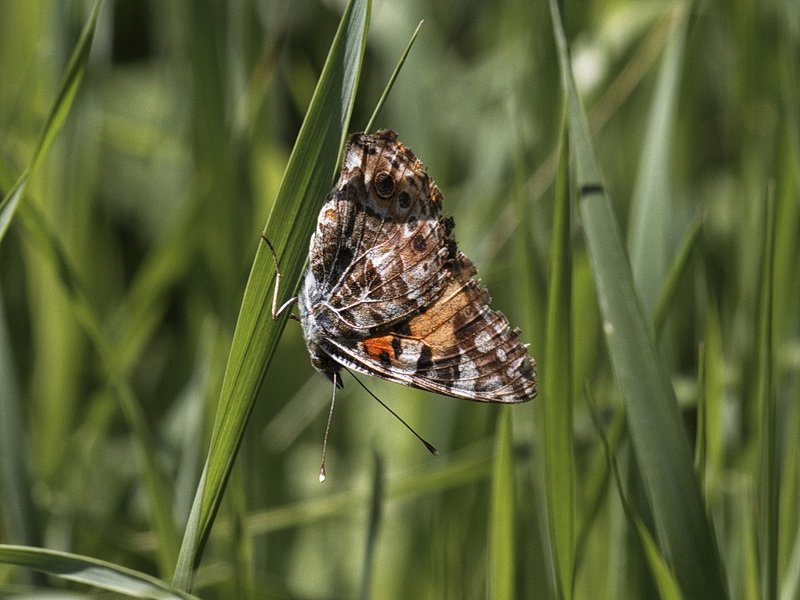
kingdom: Animalia
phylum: Arthropoda
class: Insecta
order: Lepidoptera
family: Nymphalidae
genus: Vanessa
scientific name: Vanessa cardui
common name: Painted Lady
